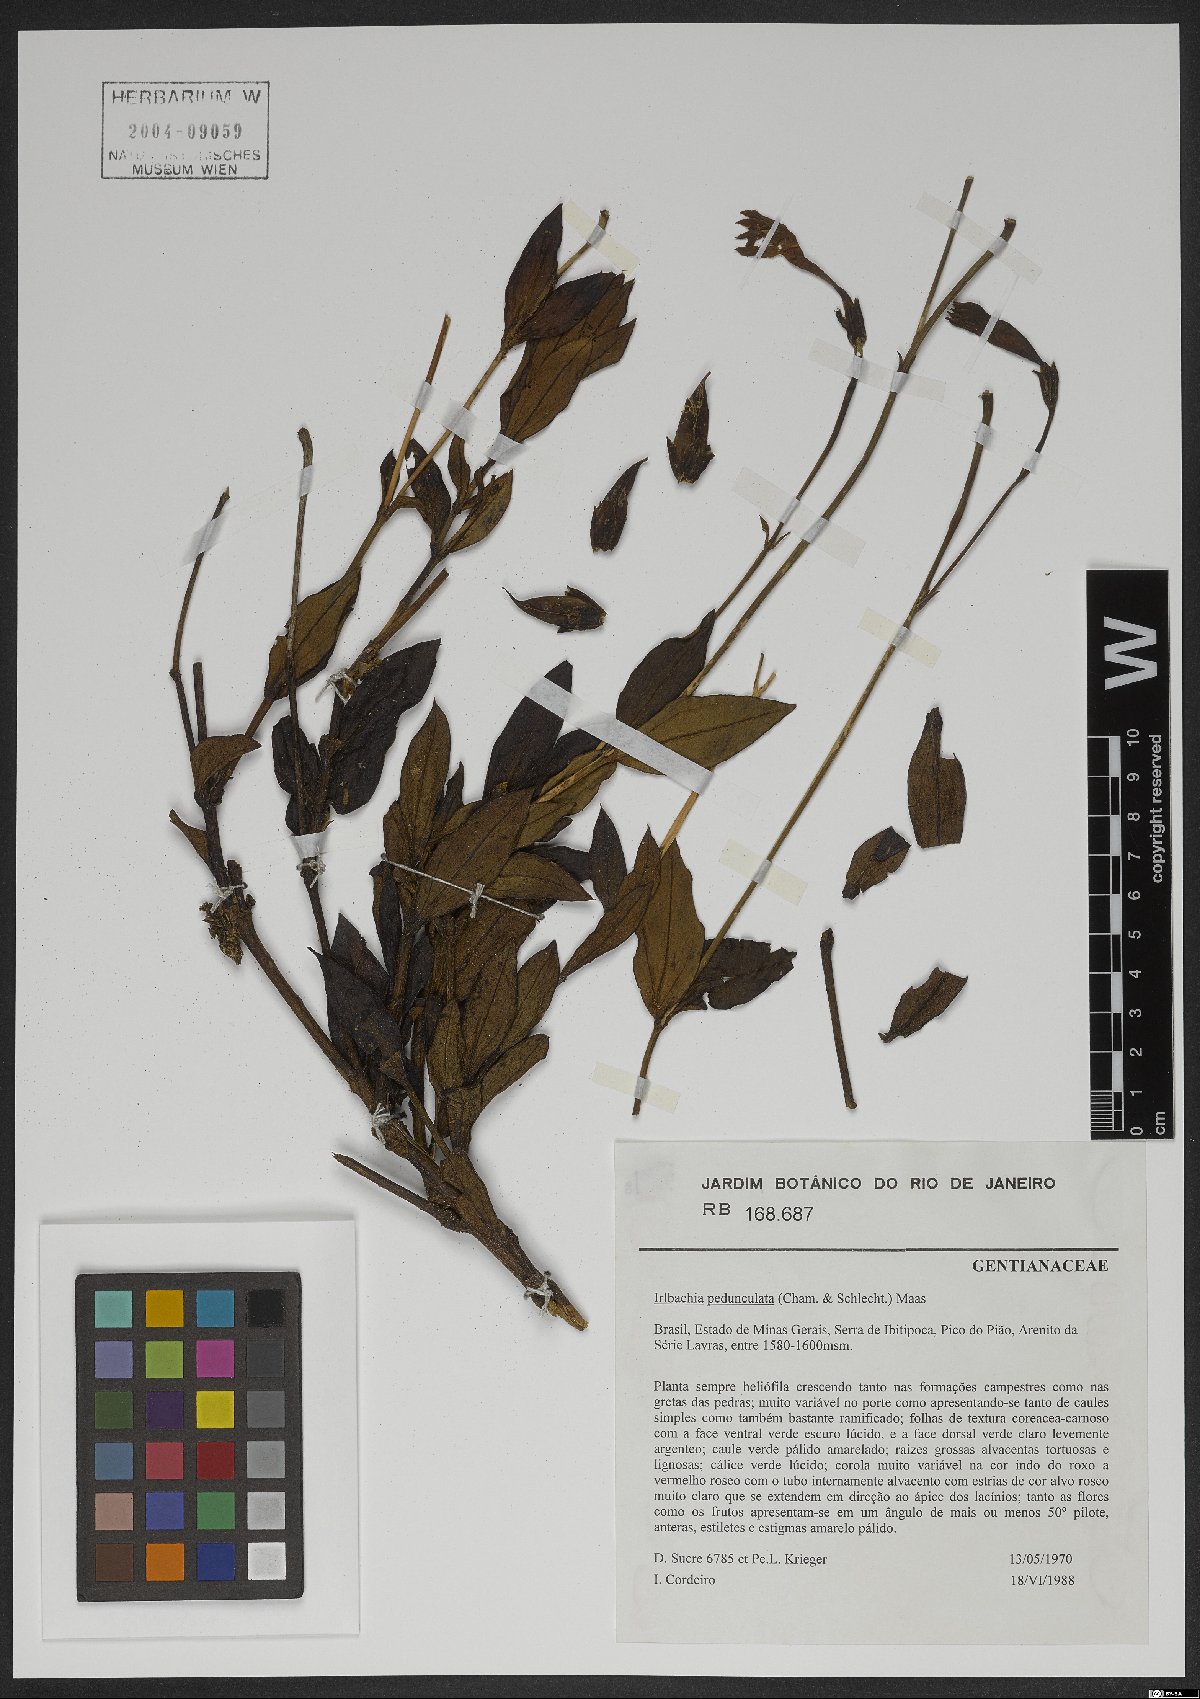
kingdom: Plantae
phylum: Tracheophyta
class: Magnoliopsida
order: Gentianales
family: Gentianaceae
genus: Calolisianthus
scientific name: Calolisianthus pedunculatus
